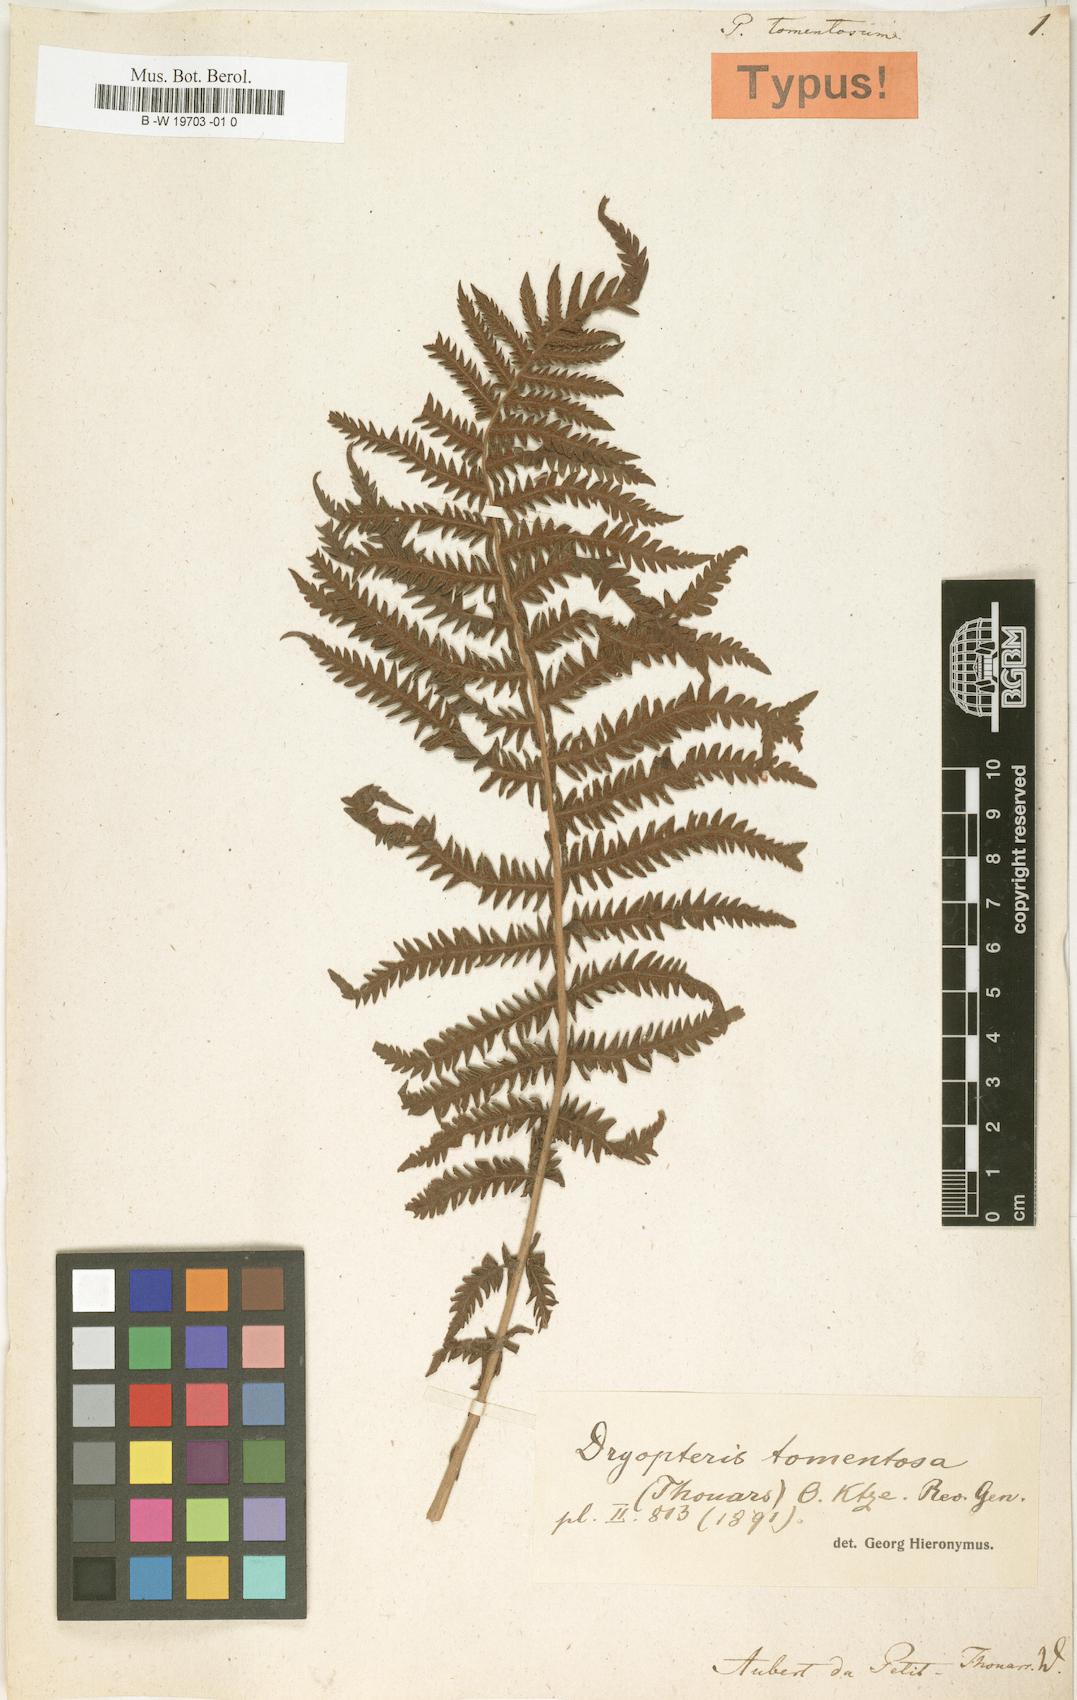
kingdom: Plantae
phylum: Tracheophyta
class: Polypodiopsida
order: Polypodiales
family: Polypodiaceae
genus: Polypodium
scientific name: Polypodium tomentosum
